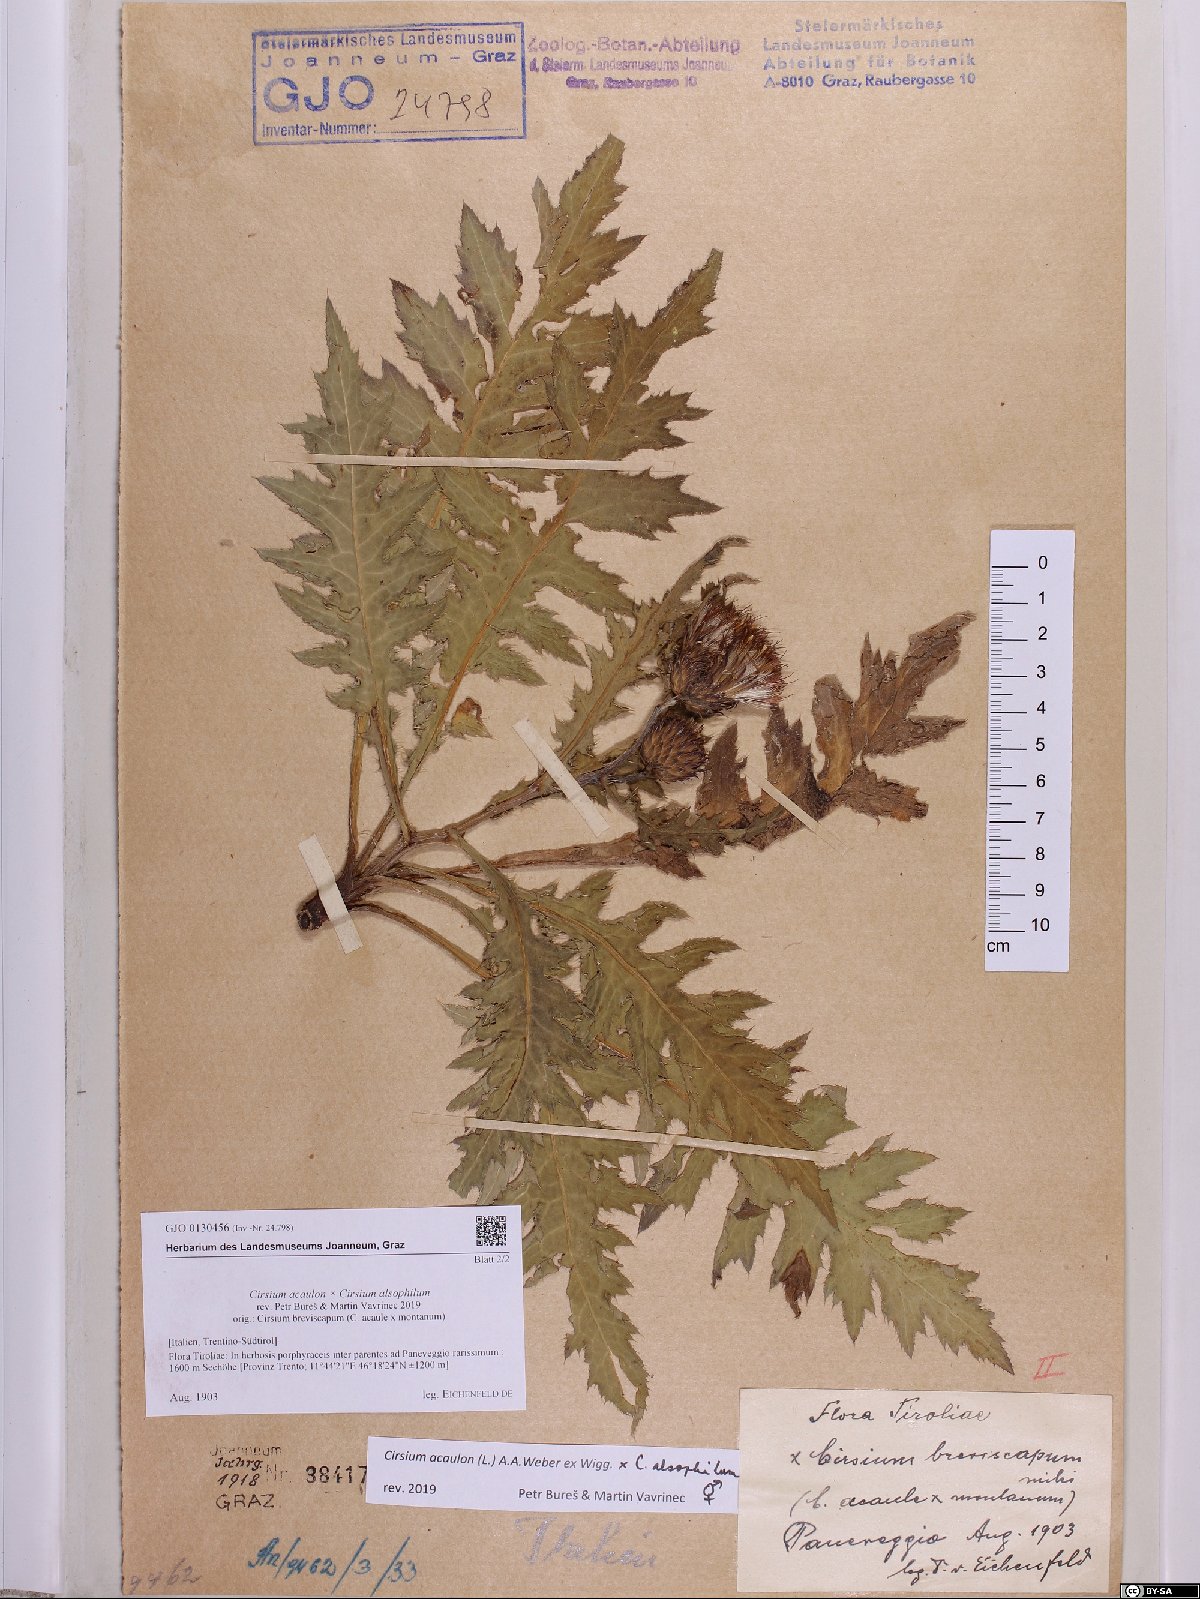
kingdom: Plantae
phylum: Tracheophyta
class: Magnoliopsida
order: Asterales
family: Asteraceae
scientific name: Asteraceae
